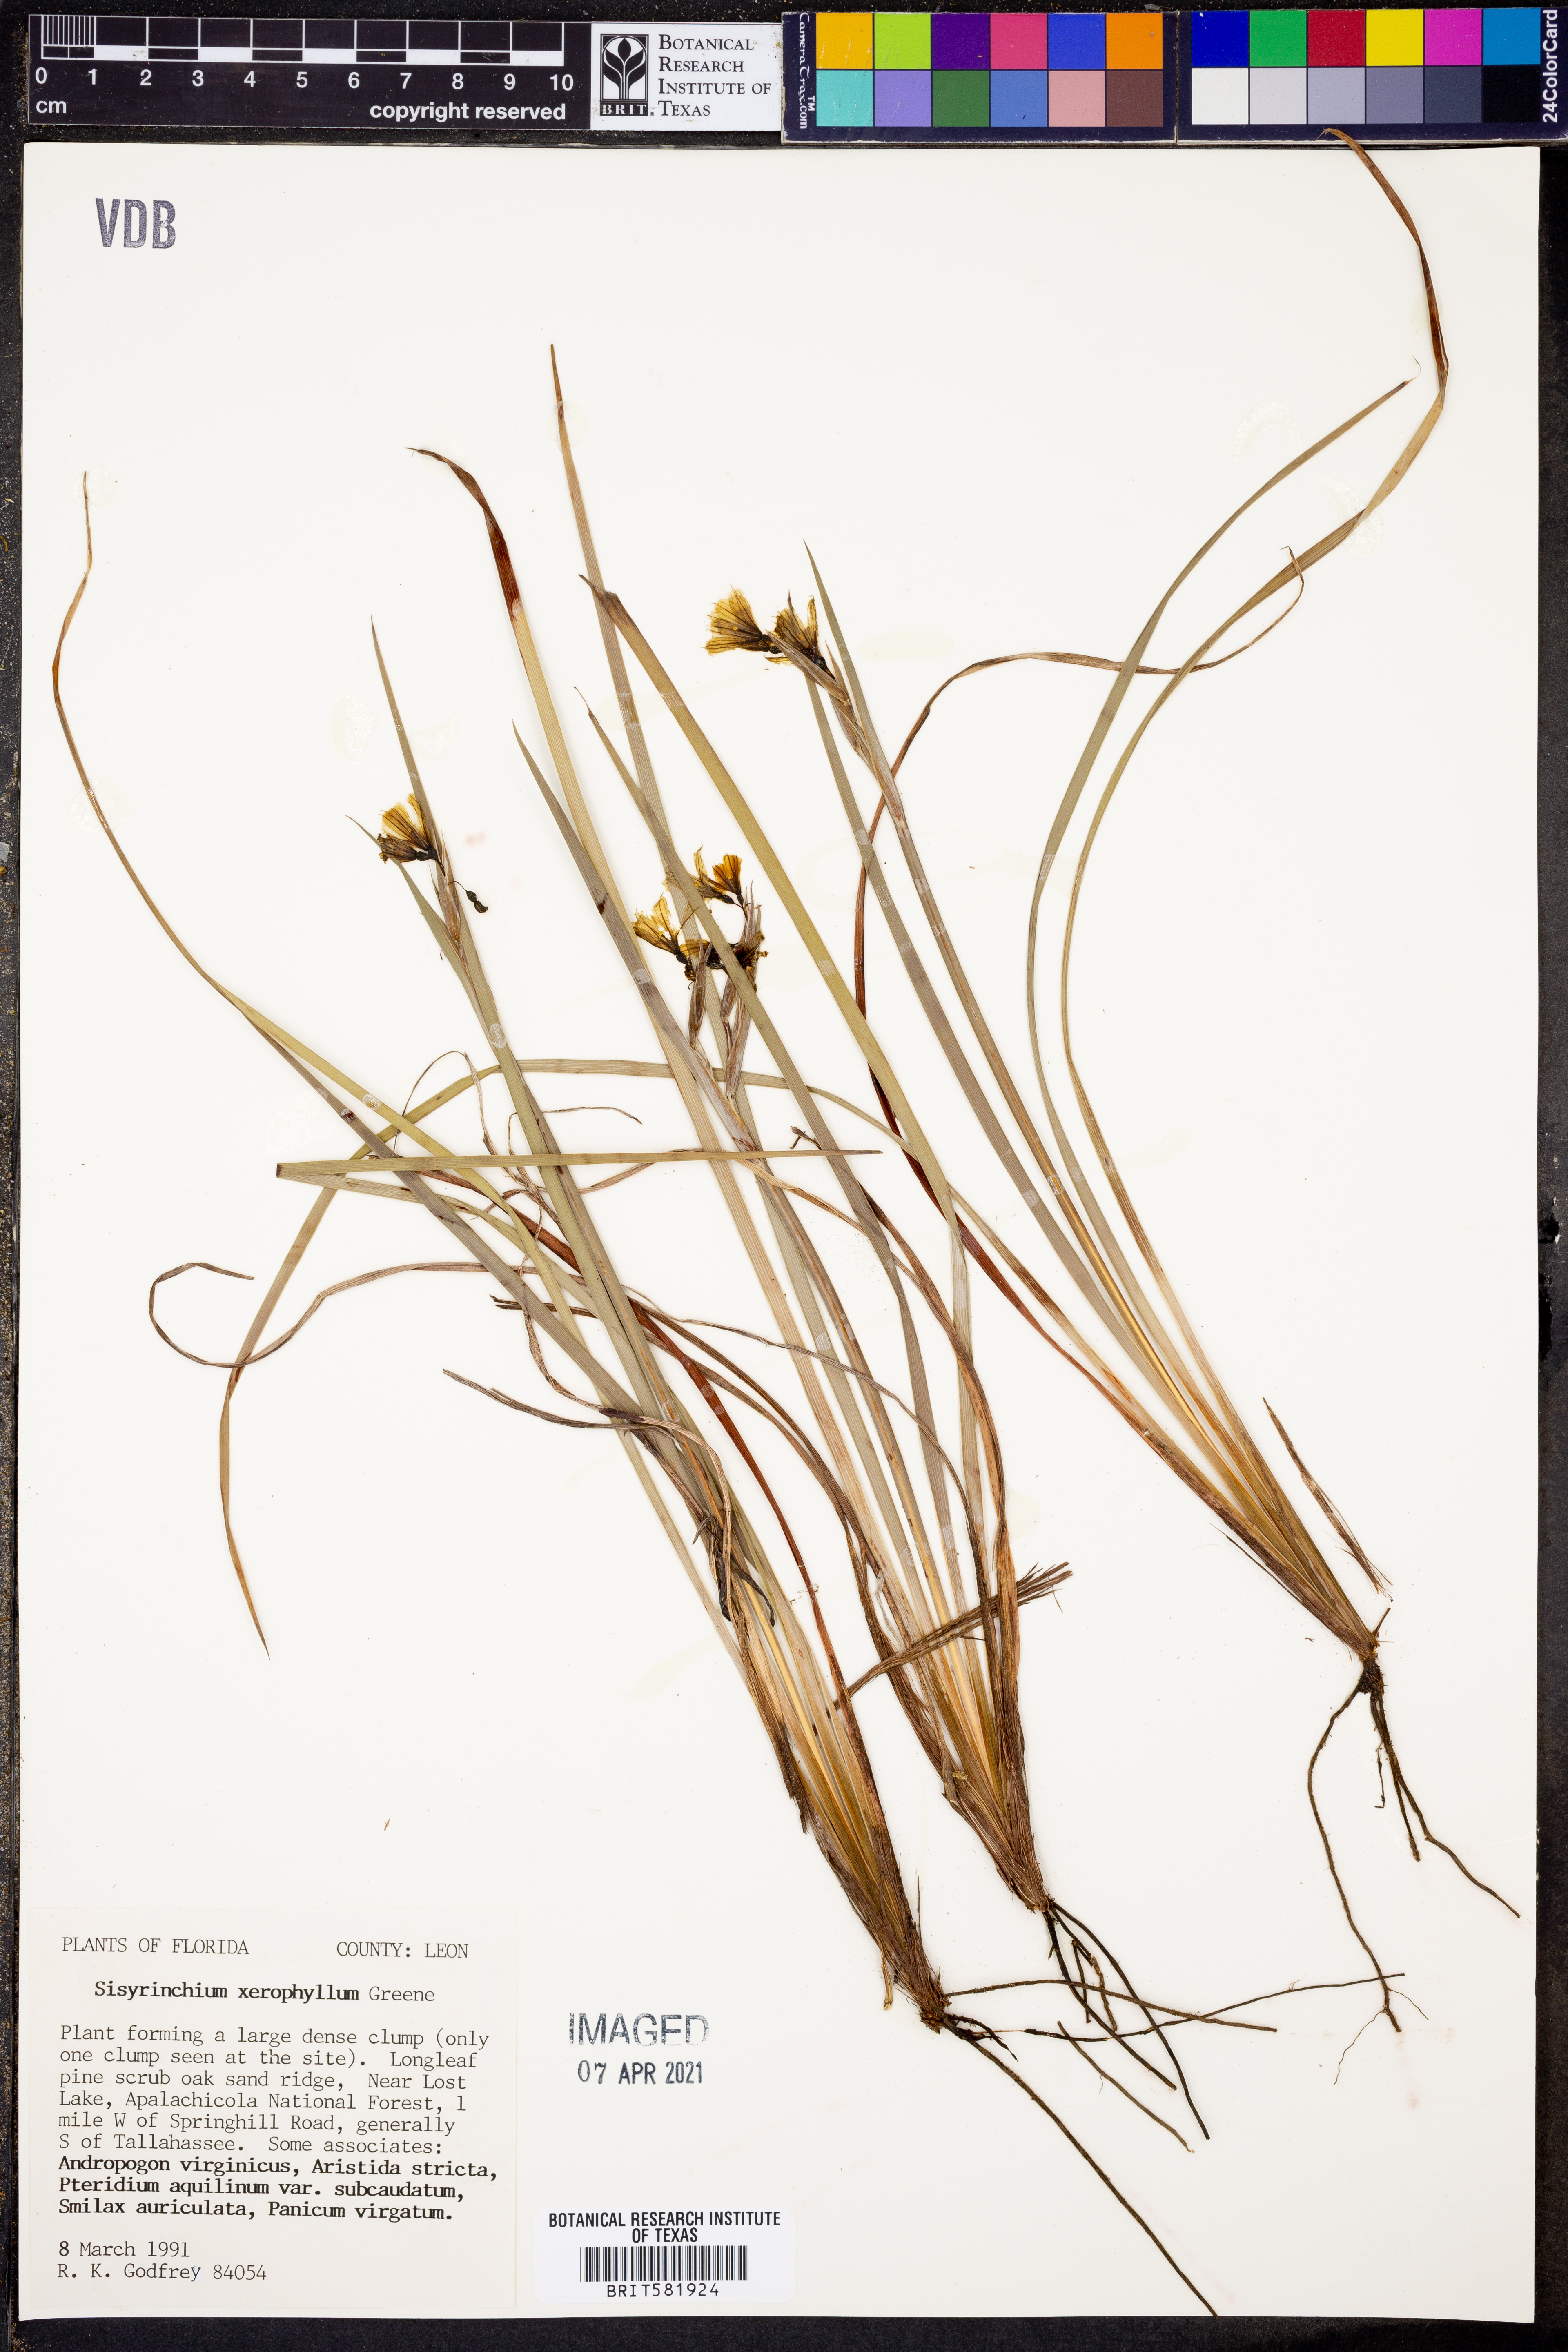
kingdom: Plantae
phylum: Tracheophyta
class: Liliopsida
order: Asparagales
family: Iridaceae
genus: Sisyrinchium
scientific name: Sisyrinchium xerophyllum
